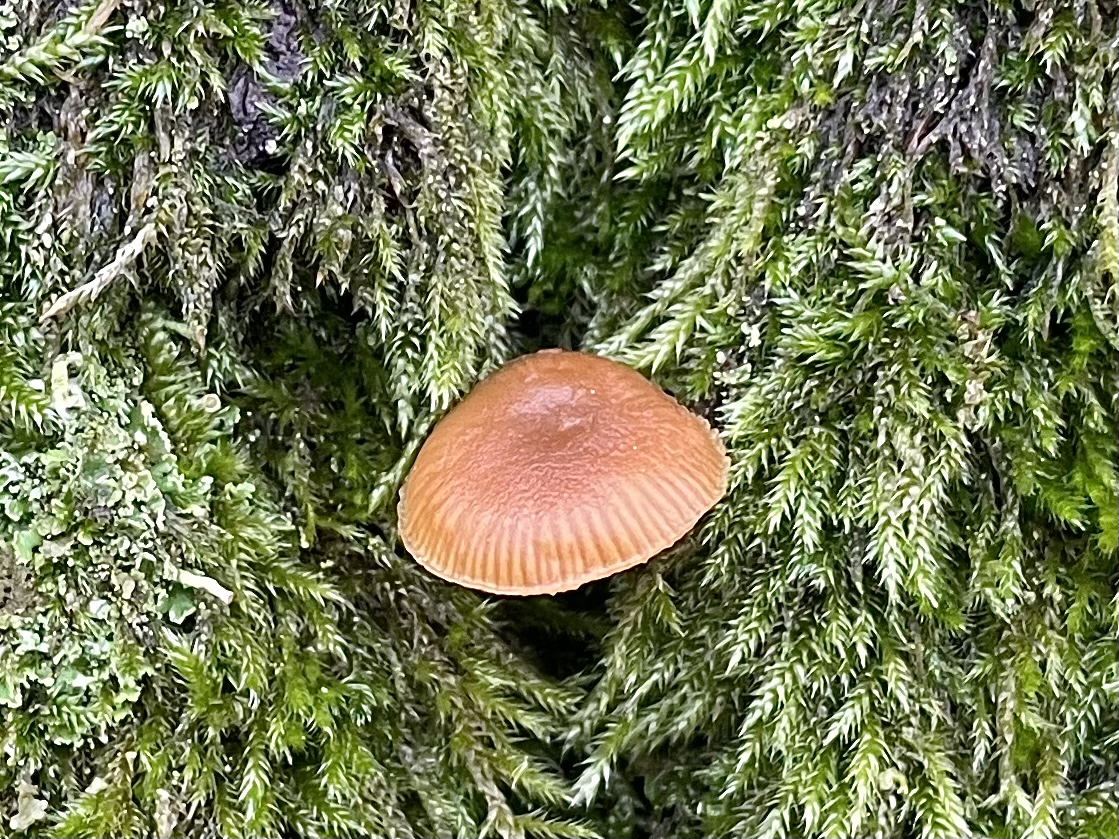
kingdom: Fungi
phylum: Basidiomycota
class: Agaricomycetes
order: Agaricales
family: Hymenogastraceae
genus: Galerina
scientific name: Galerina
